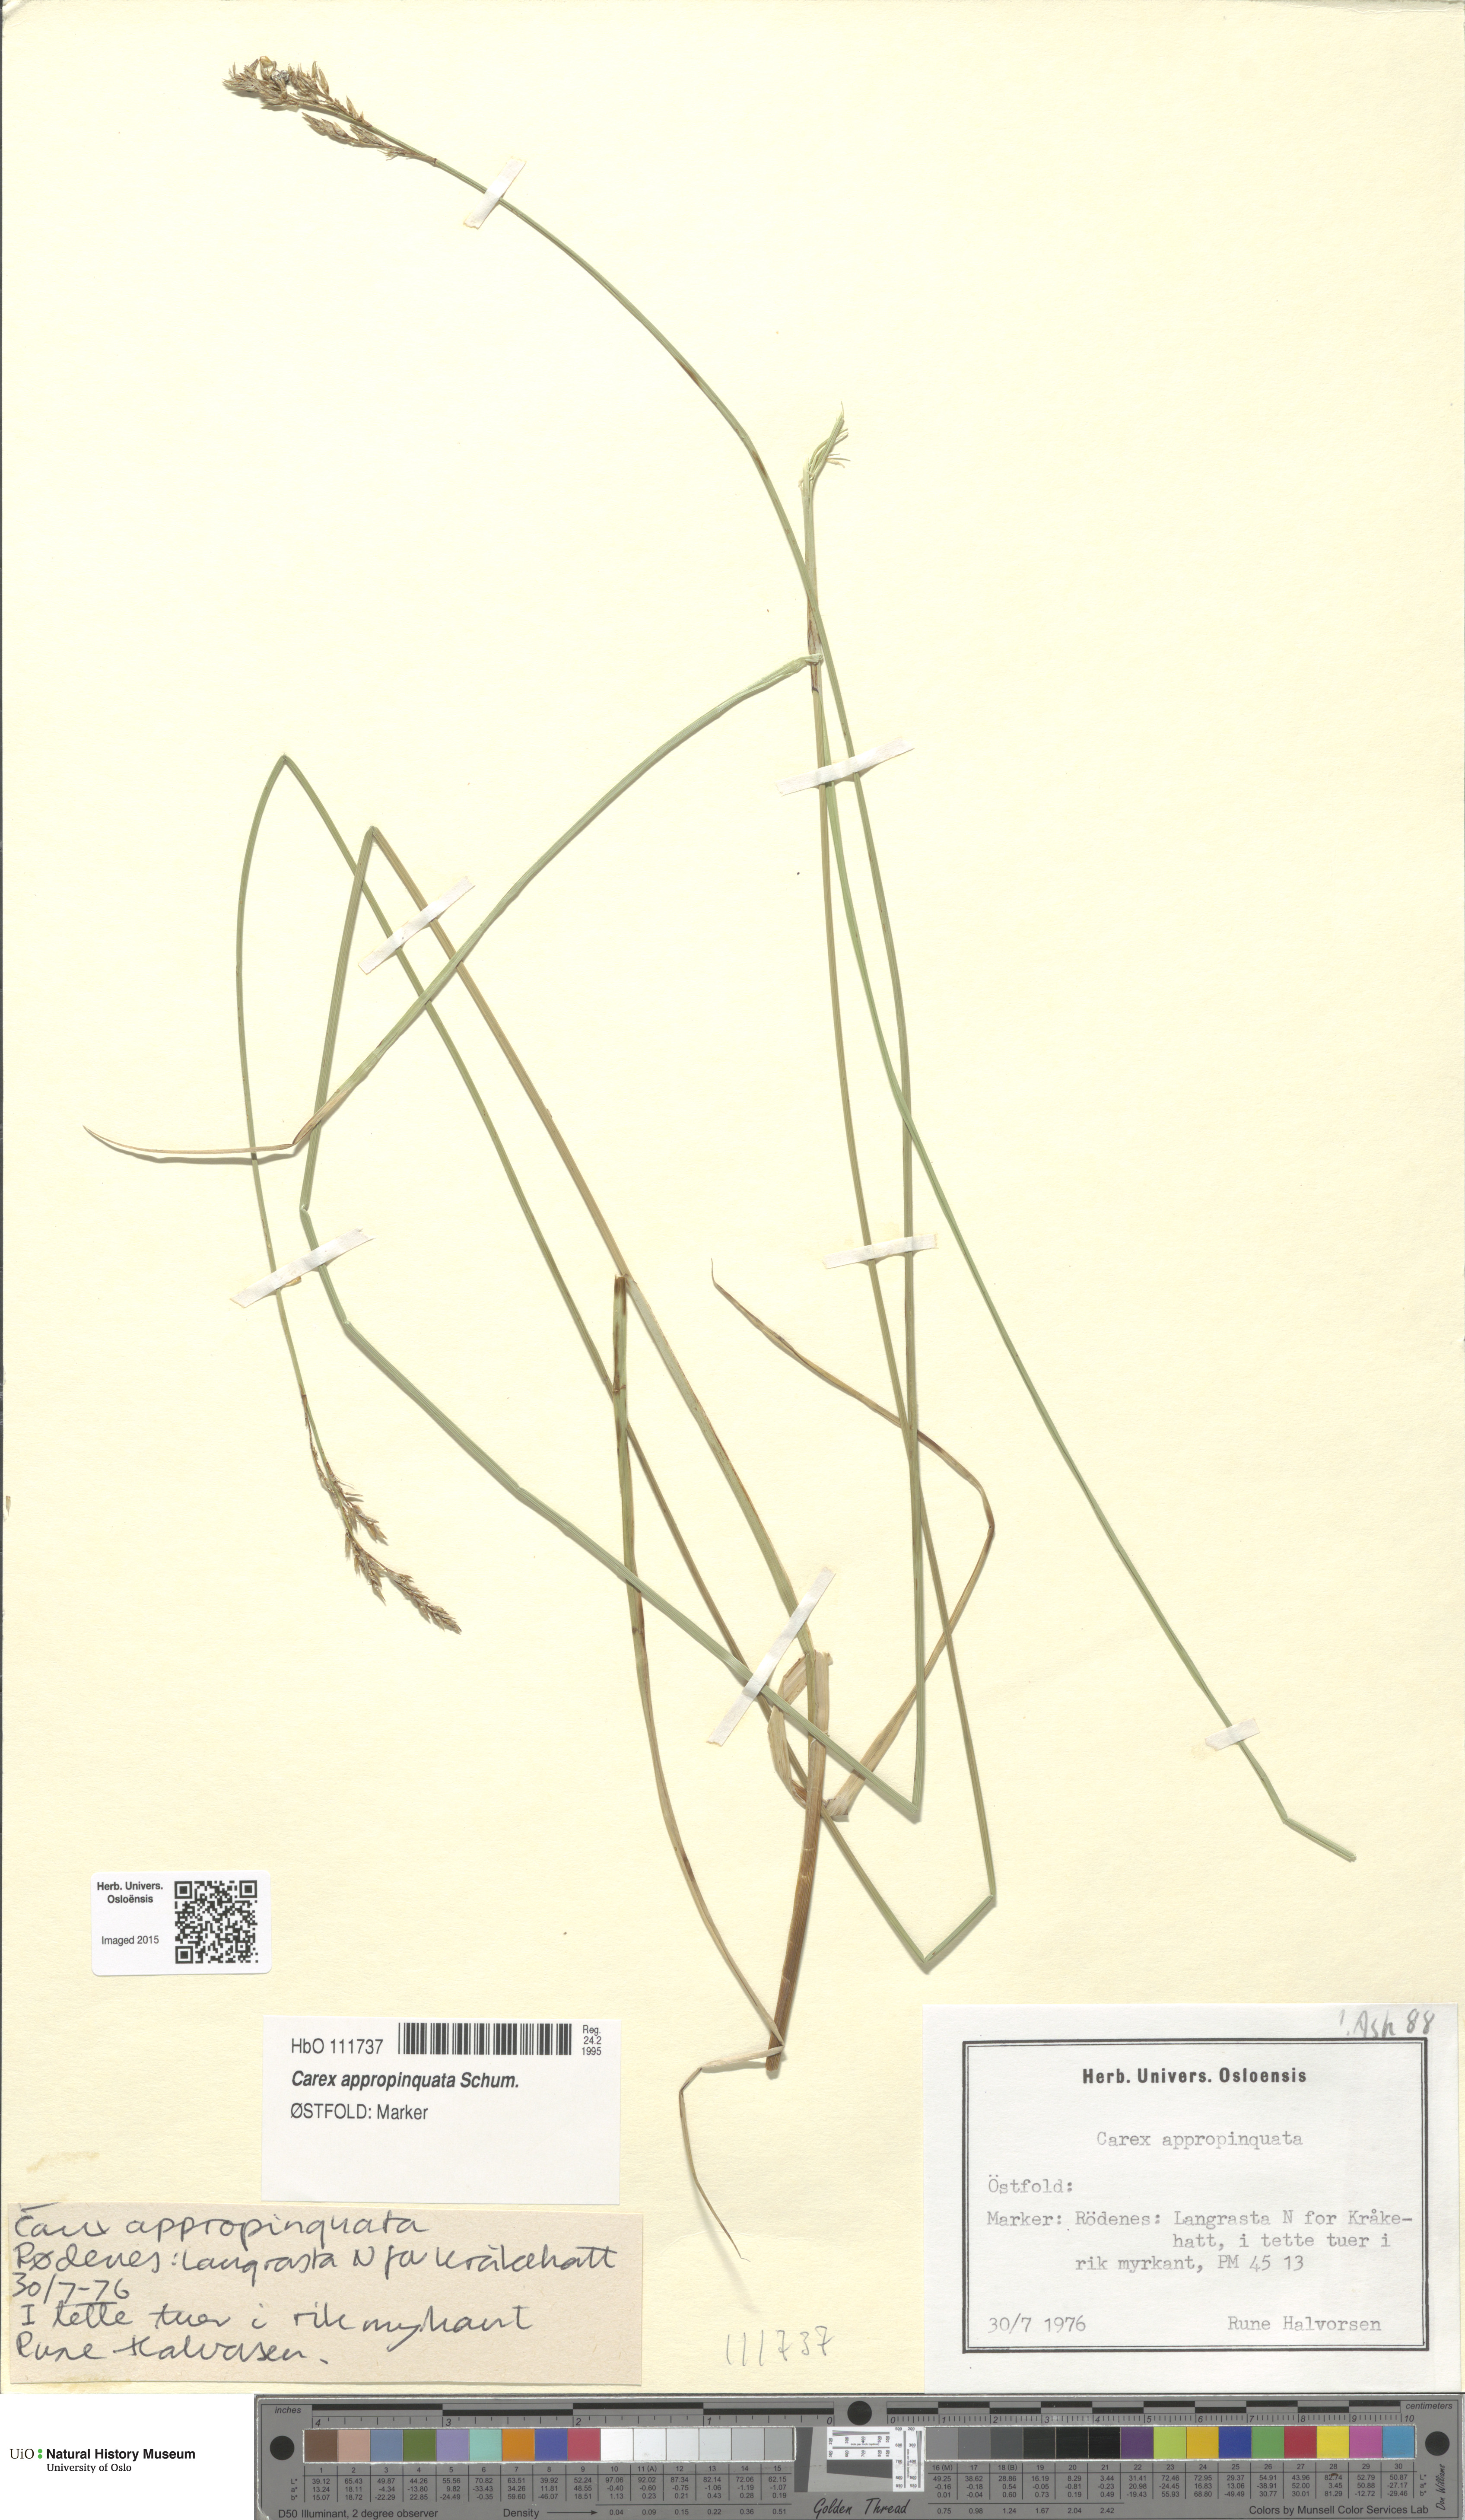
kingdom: Plantae
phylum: Tracheophyta
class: Liliopsida
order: Poales
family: Cyperaceae
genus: Carex
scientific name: Carex appropinquata
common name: Fibrous tussock-sedge
